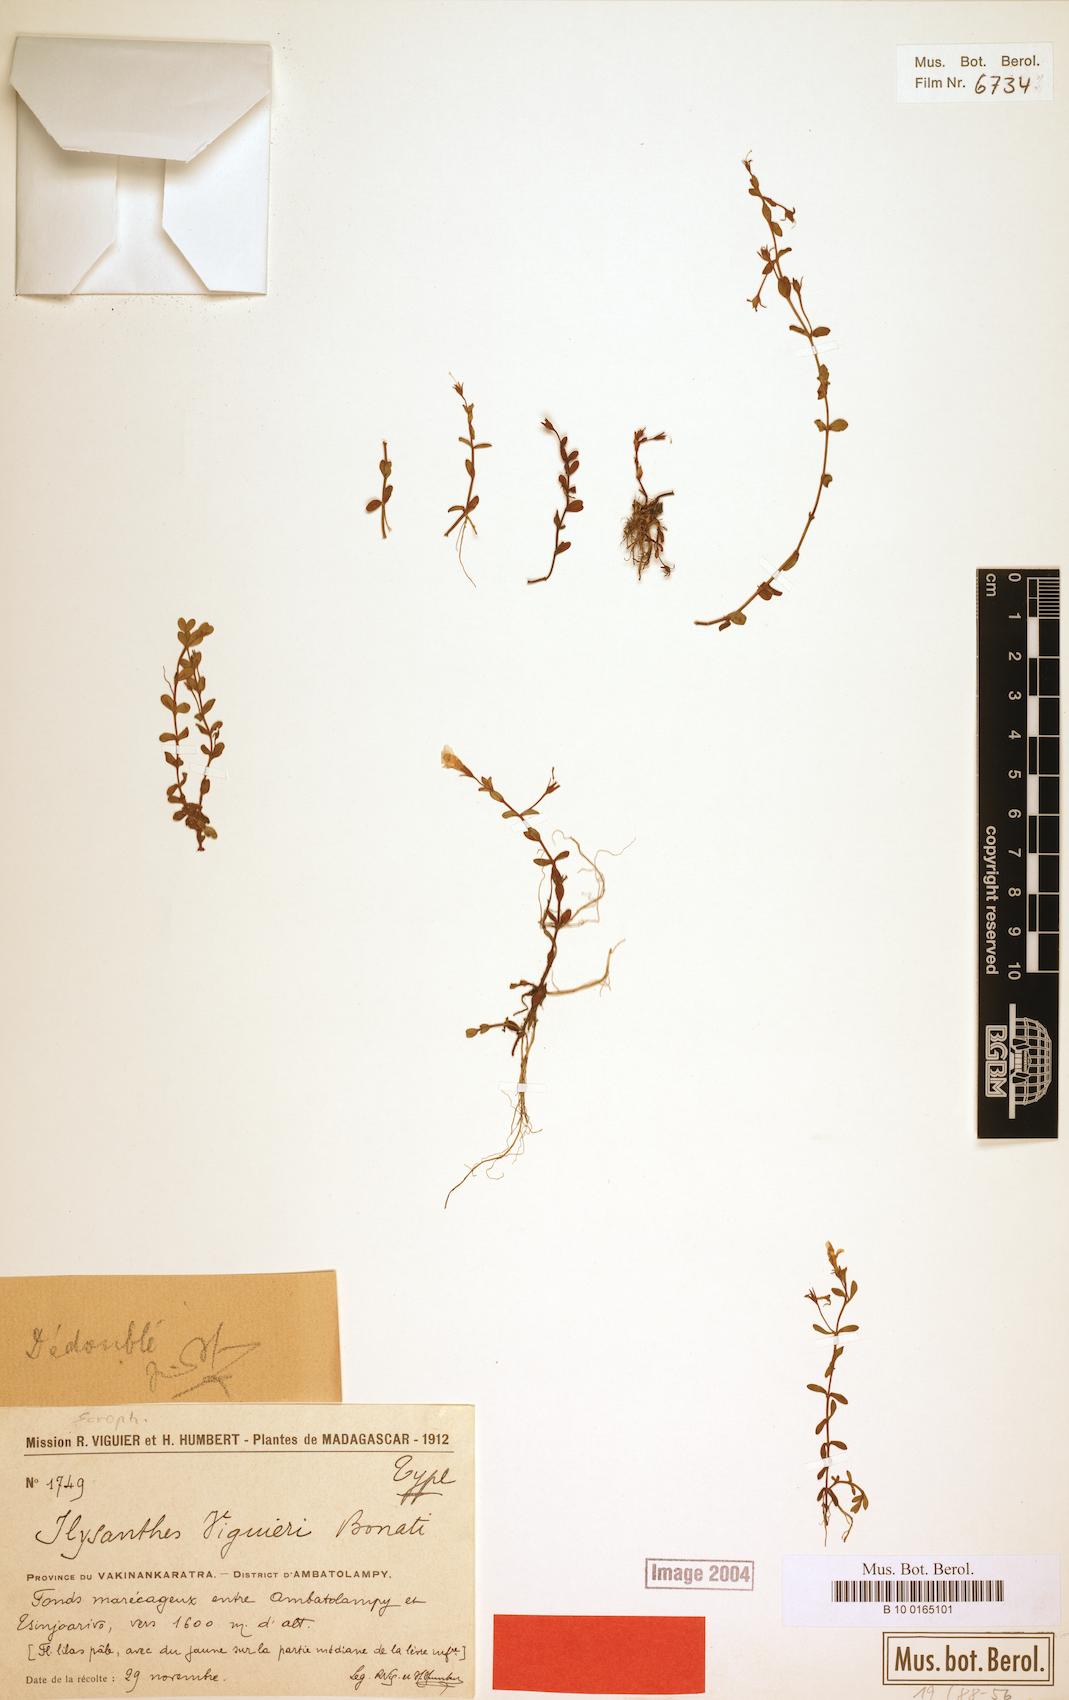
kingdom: Plantae
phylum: Tracheophyta
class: Magnoliopsida
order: Lamiales
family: Linderniaceae
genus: Lindernia
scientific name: Lindernia viguieri
